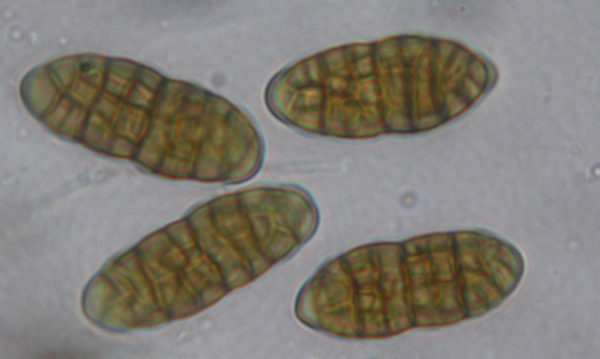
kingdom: Fungi
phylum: Ascomycota
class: Dothideomycetes
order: Pleosporales
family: Cucurbitariaceae
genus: Cucurbitaria
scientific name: Cucurbitaria
